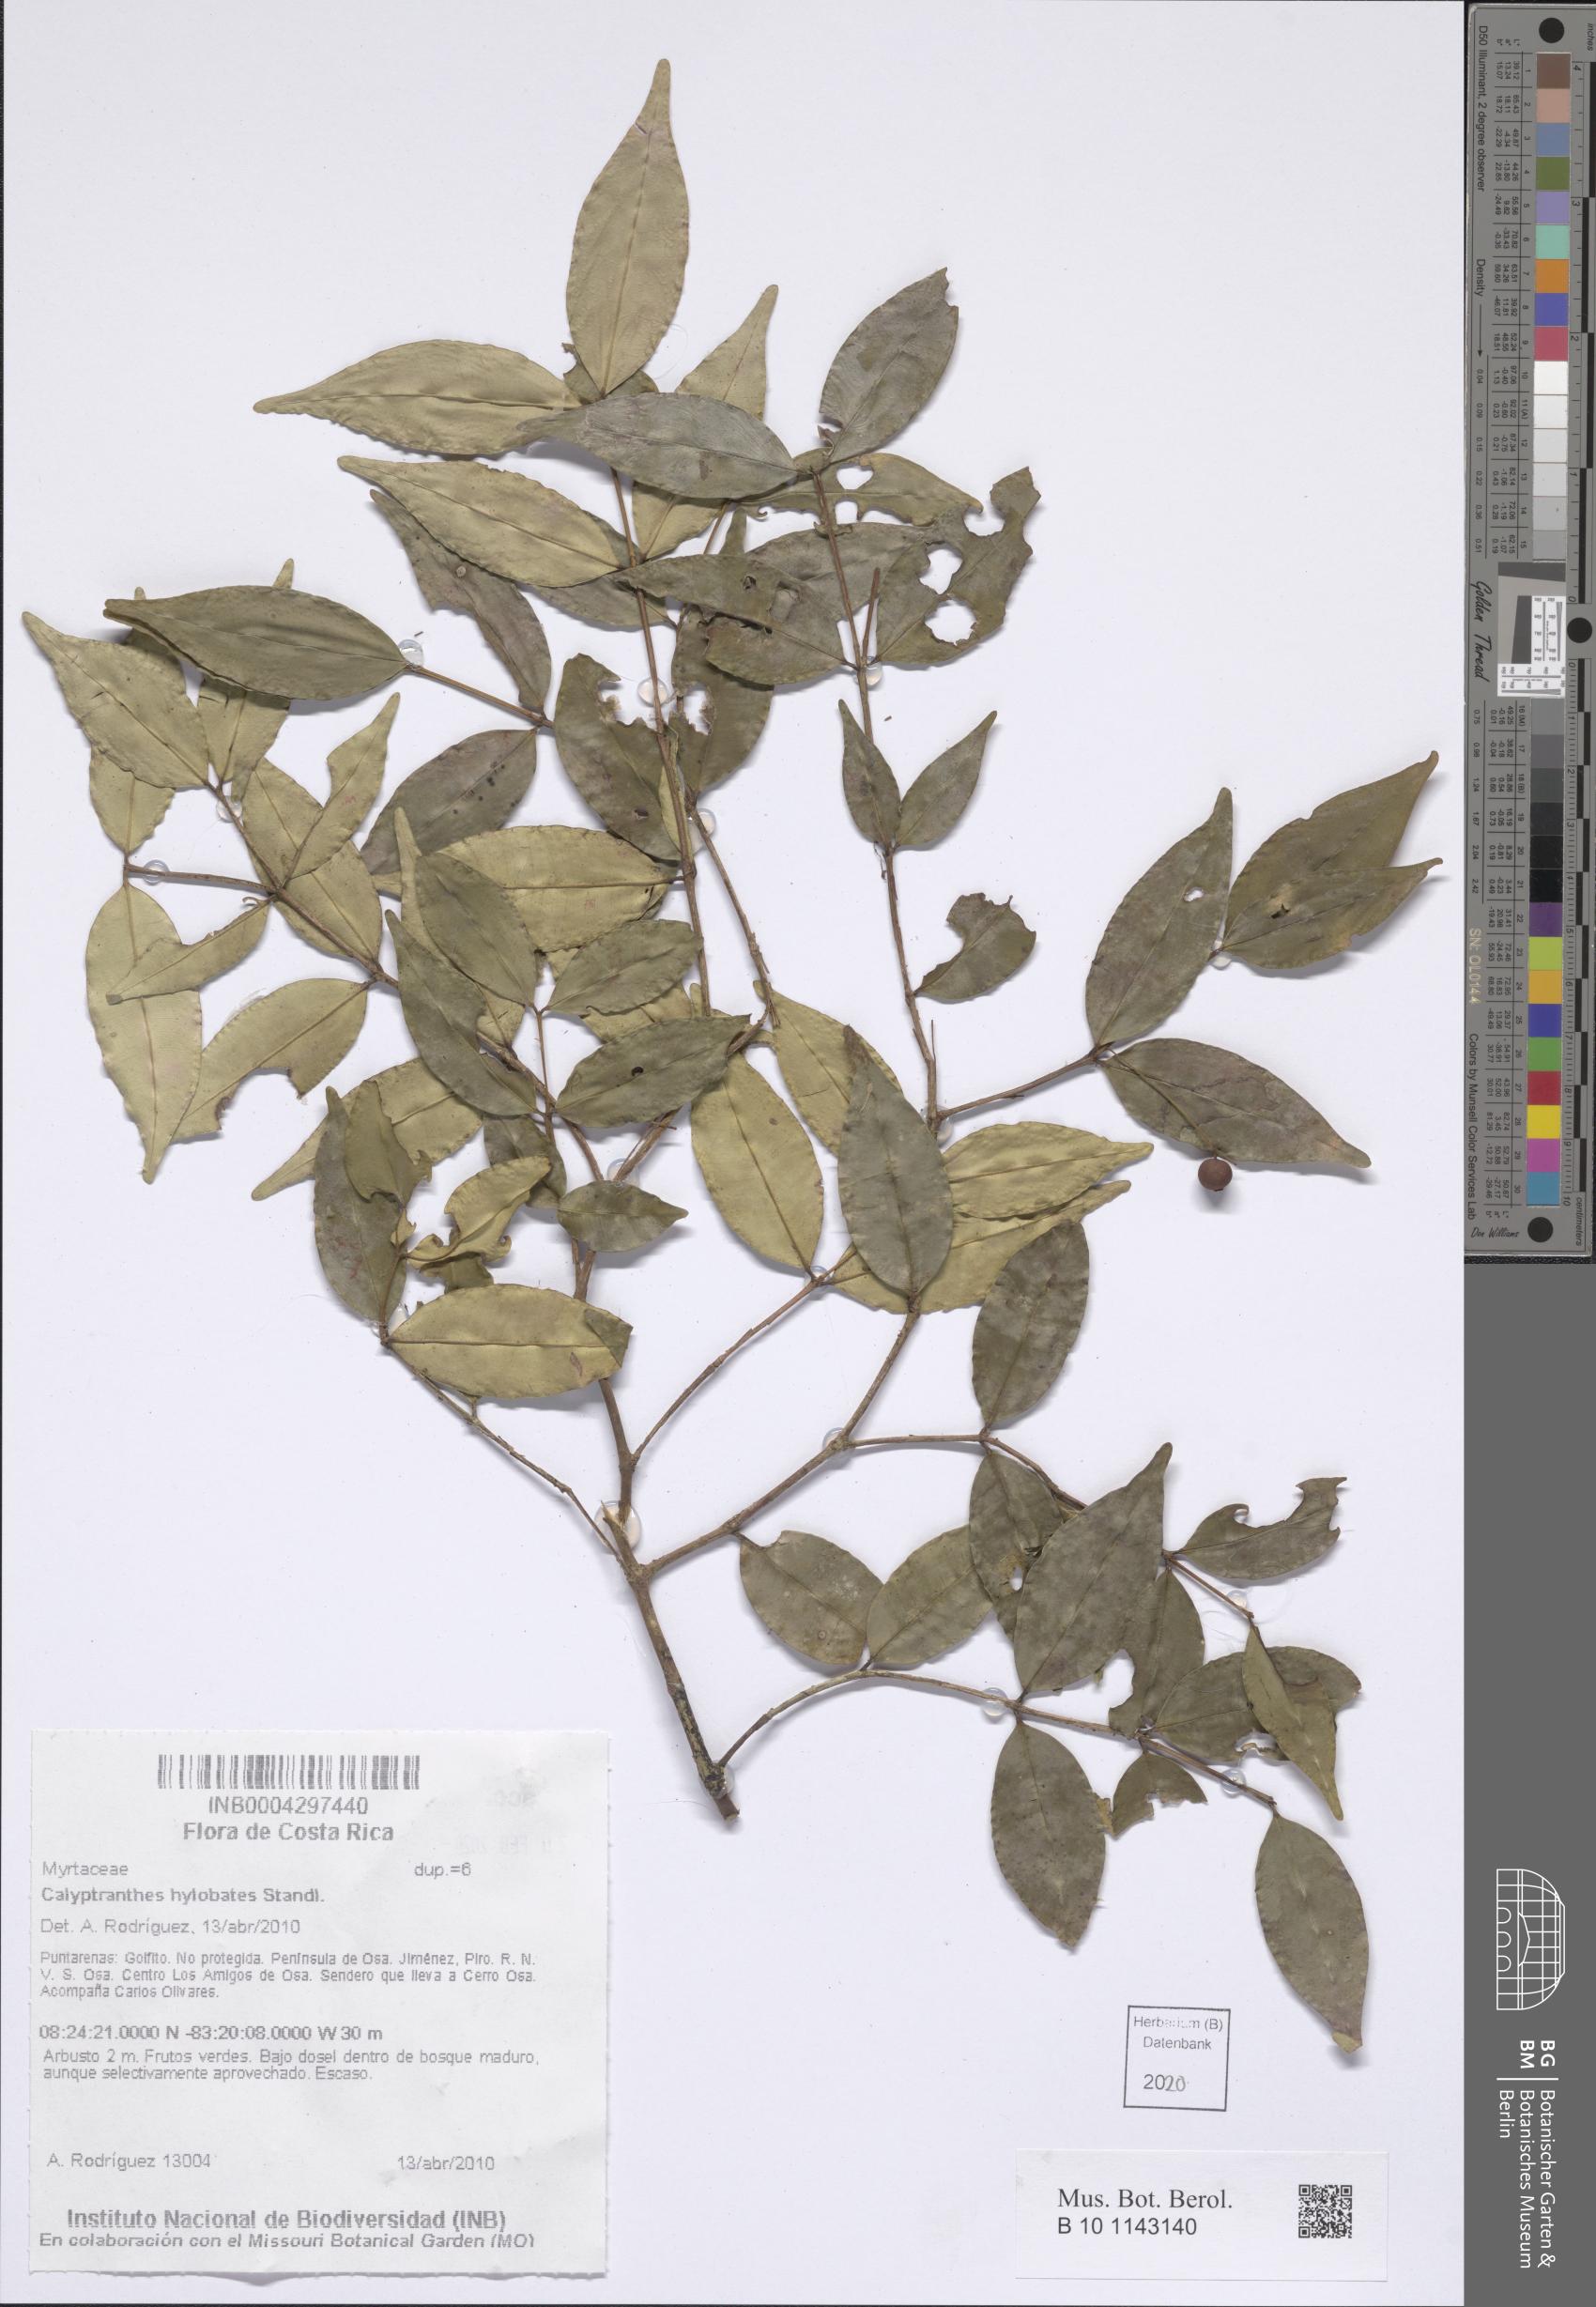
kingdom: Plantae
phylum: Tracheophyta
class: Magnoliopsida
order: Myrtales
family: Myrtaceae
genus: Myrcia
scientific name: Myrcia hylobates
